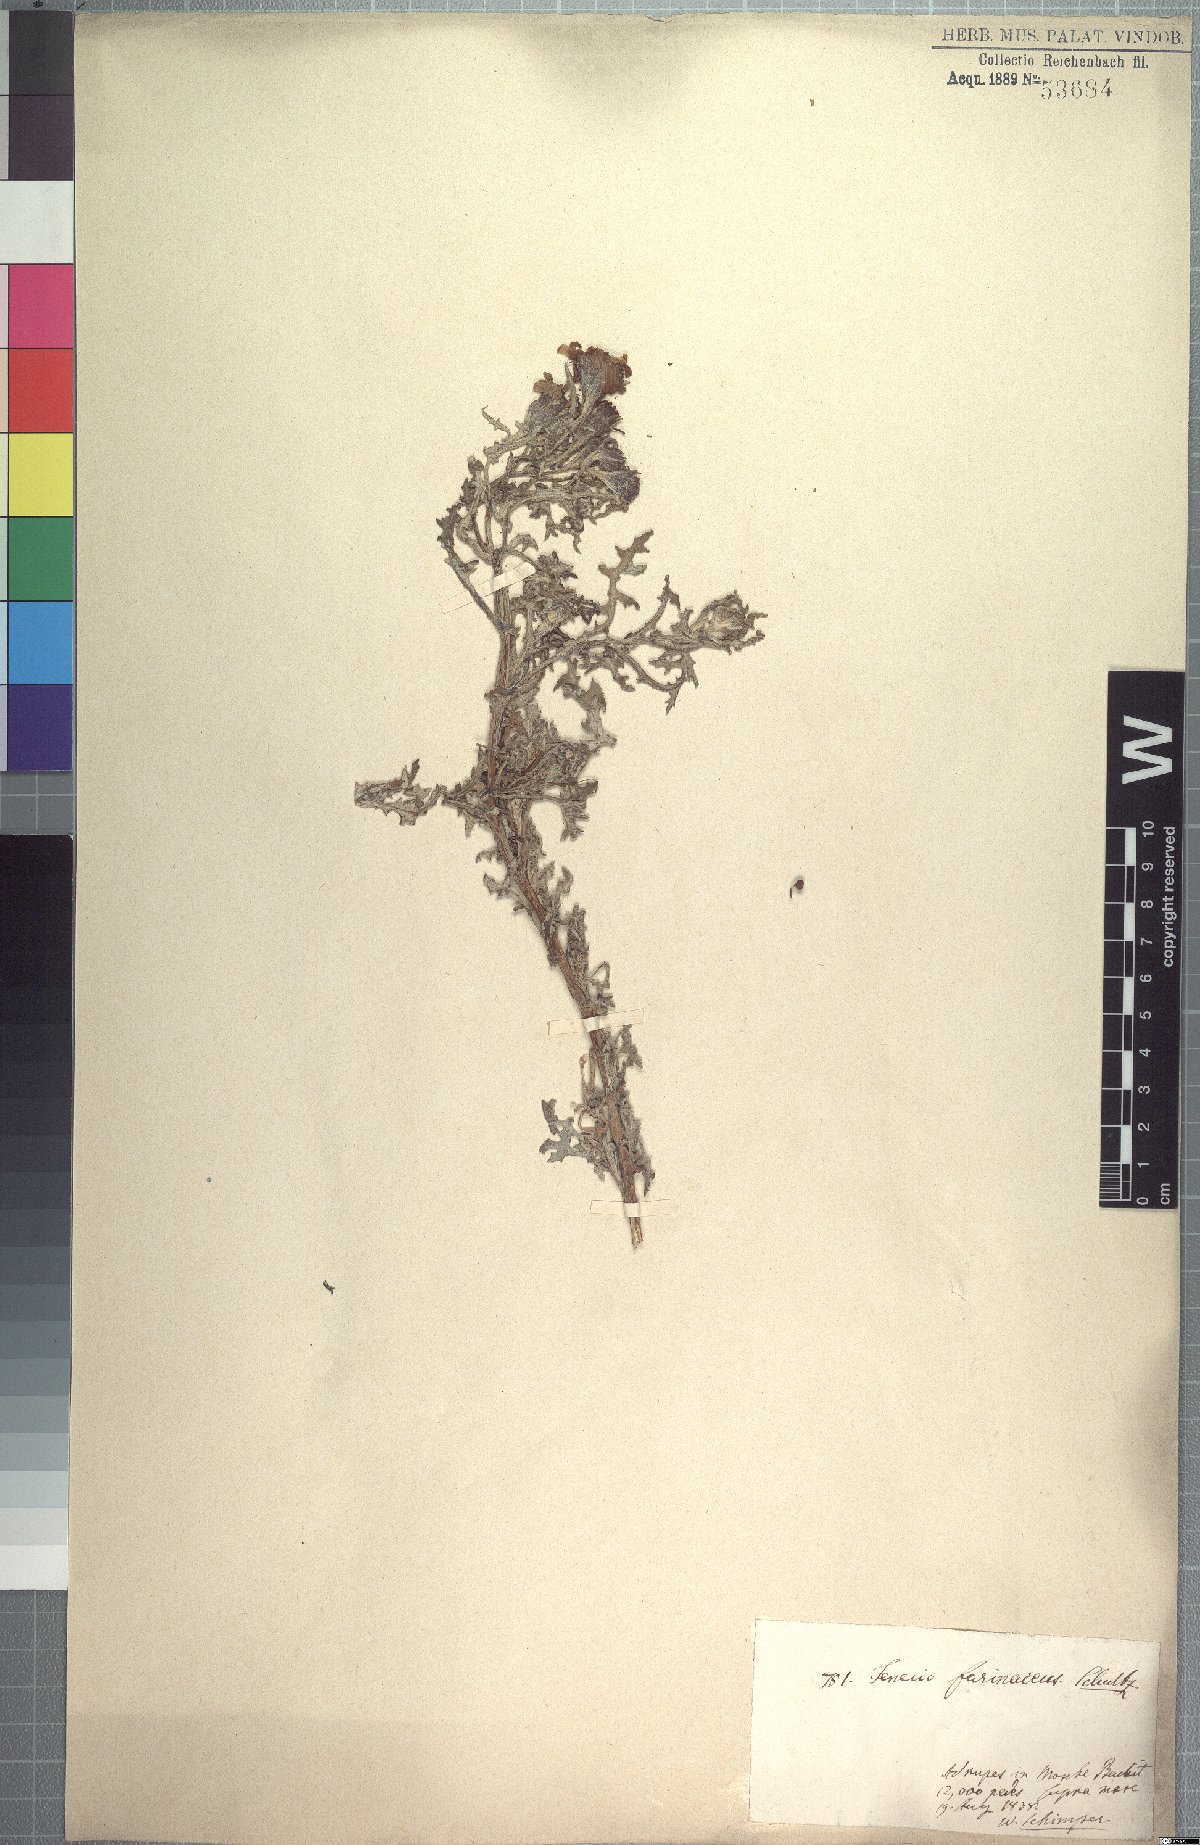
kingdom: Plantae
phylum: Tracheophyta
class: Magnoliopsida
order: Asterales
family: Asteraceae
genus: Senecio
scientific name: Senecio farinaceus
